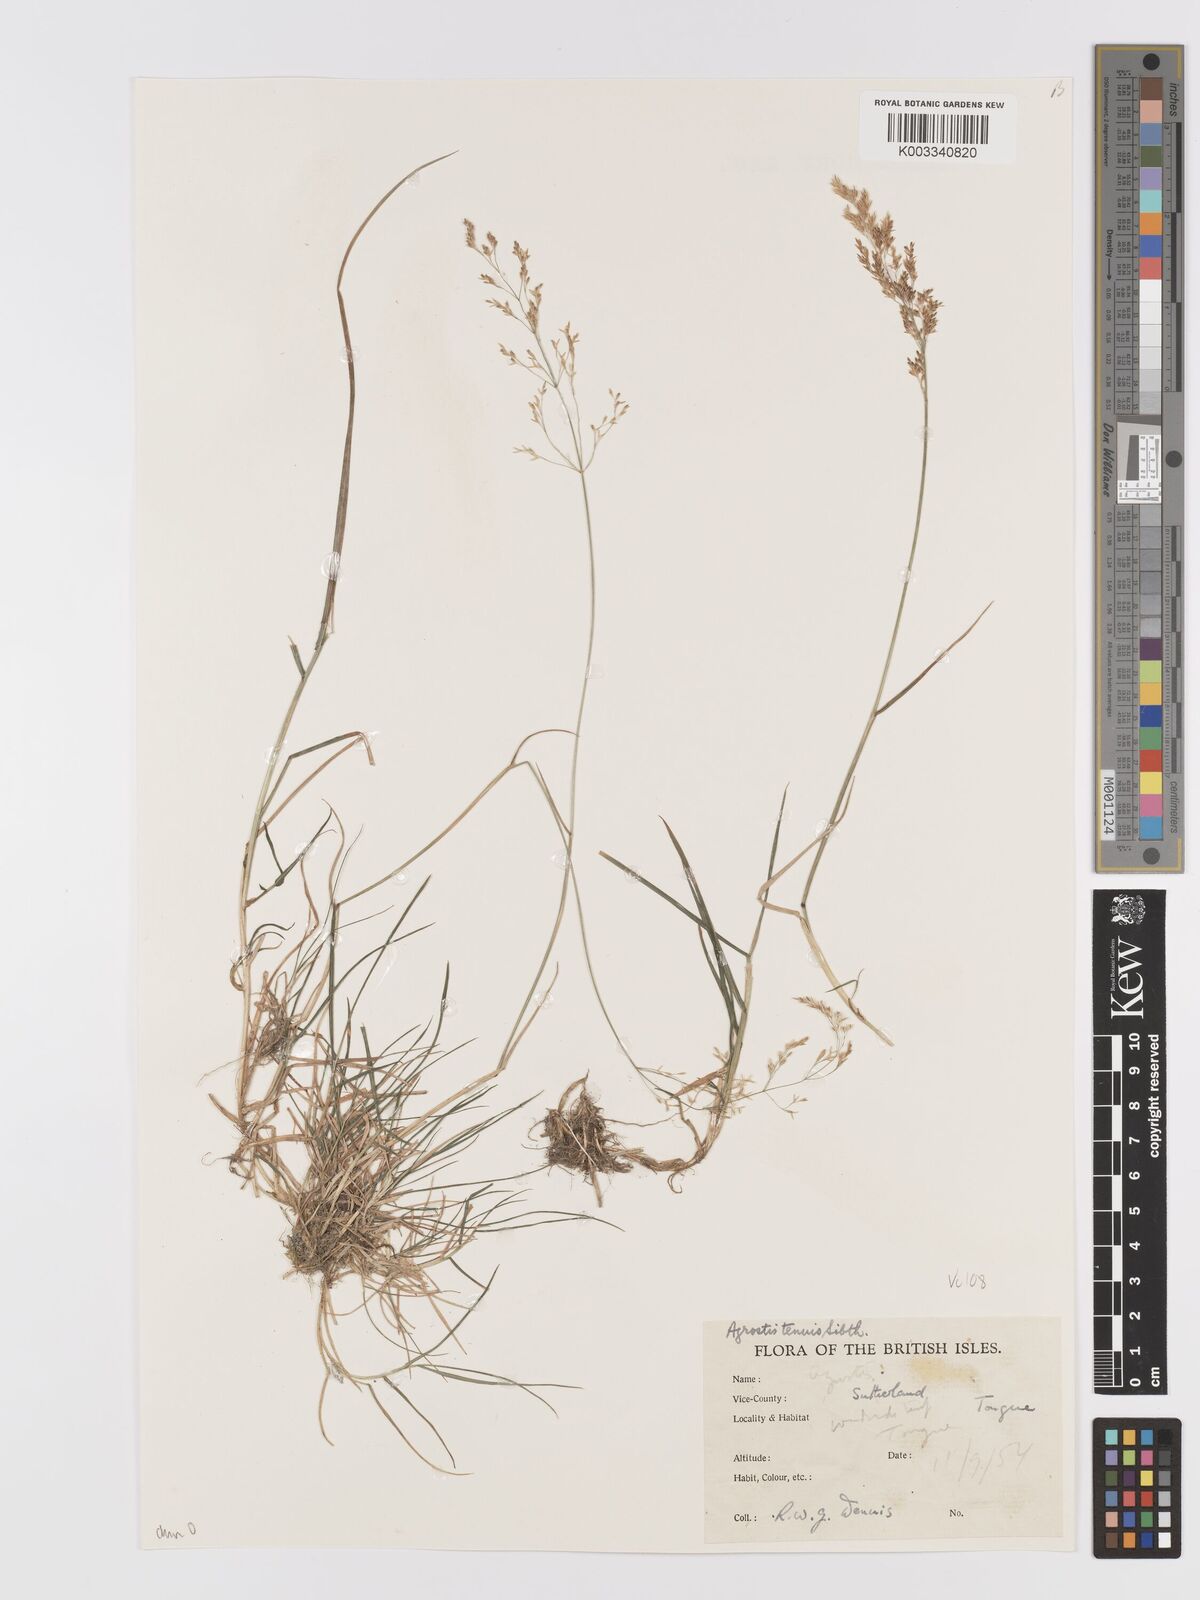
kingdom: Plantae
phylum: Tracheophyta
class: Liliopsida
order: Poales
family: Poaceae
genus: Agrostis
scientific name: Agrostis capillaris
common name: Colonial bentgrass
